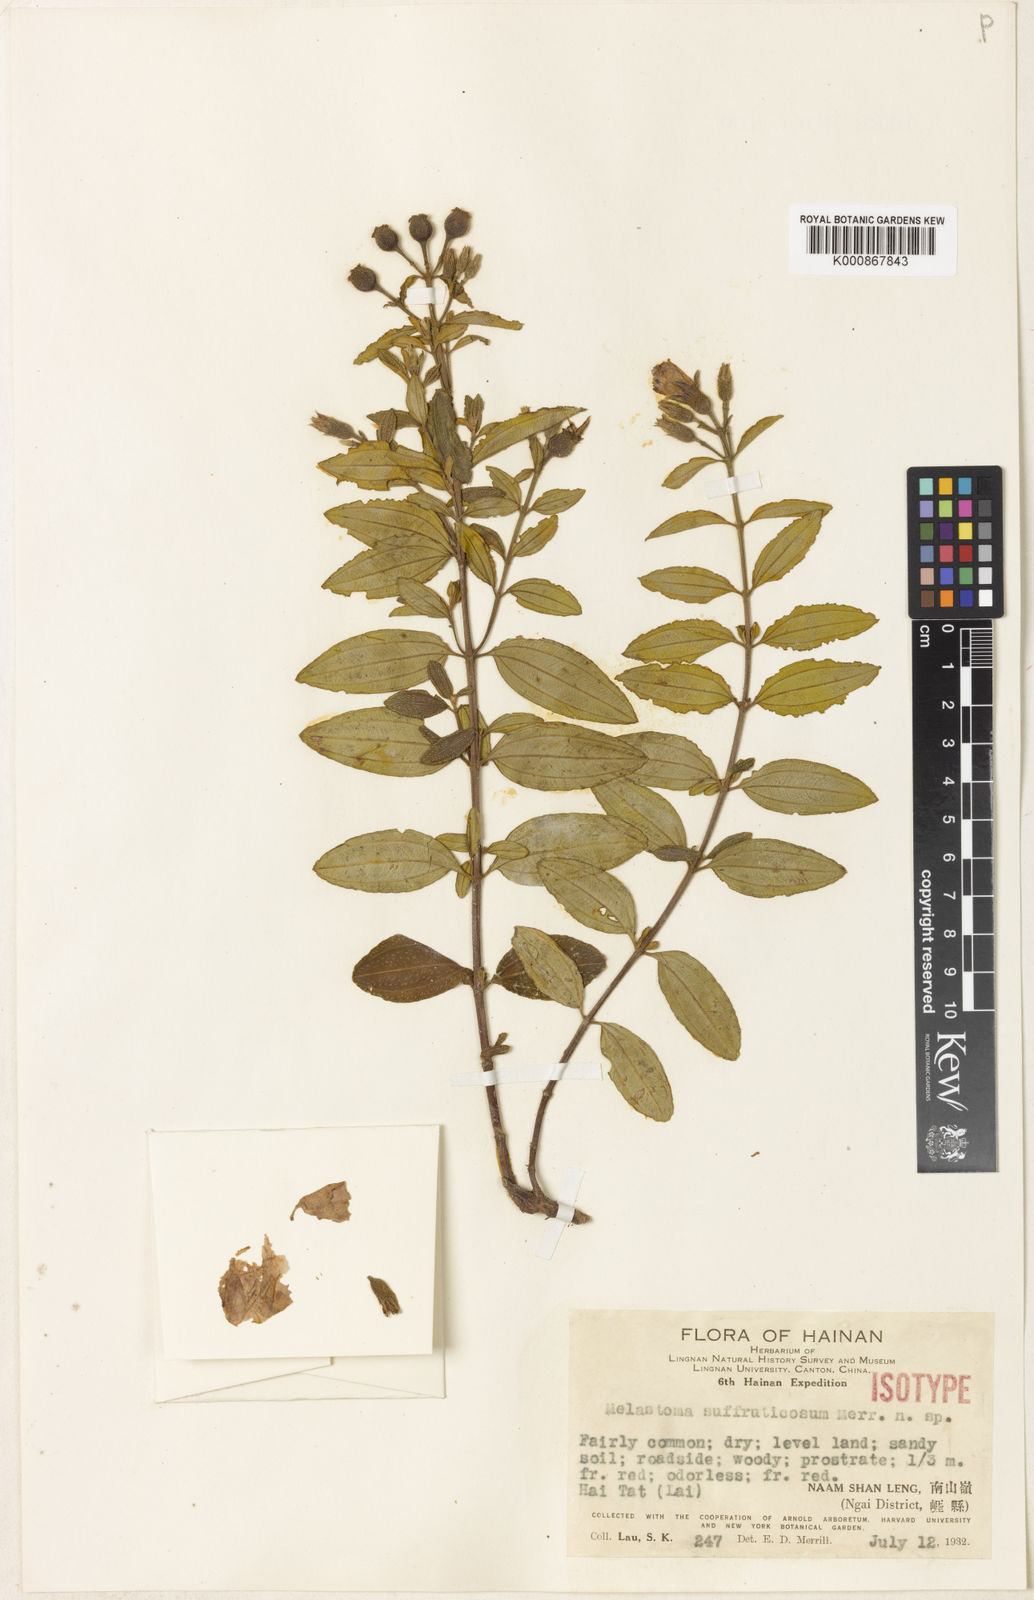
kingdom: Plantae
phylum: Tracheophyta
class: Magnoliopsida
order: Myrtales
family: Melastomataceae
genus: Melastoma
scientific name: Melastoma intermedium
